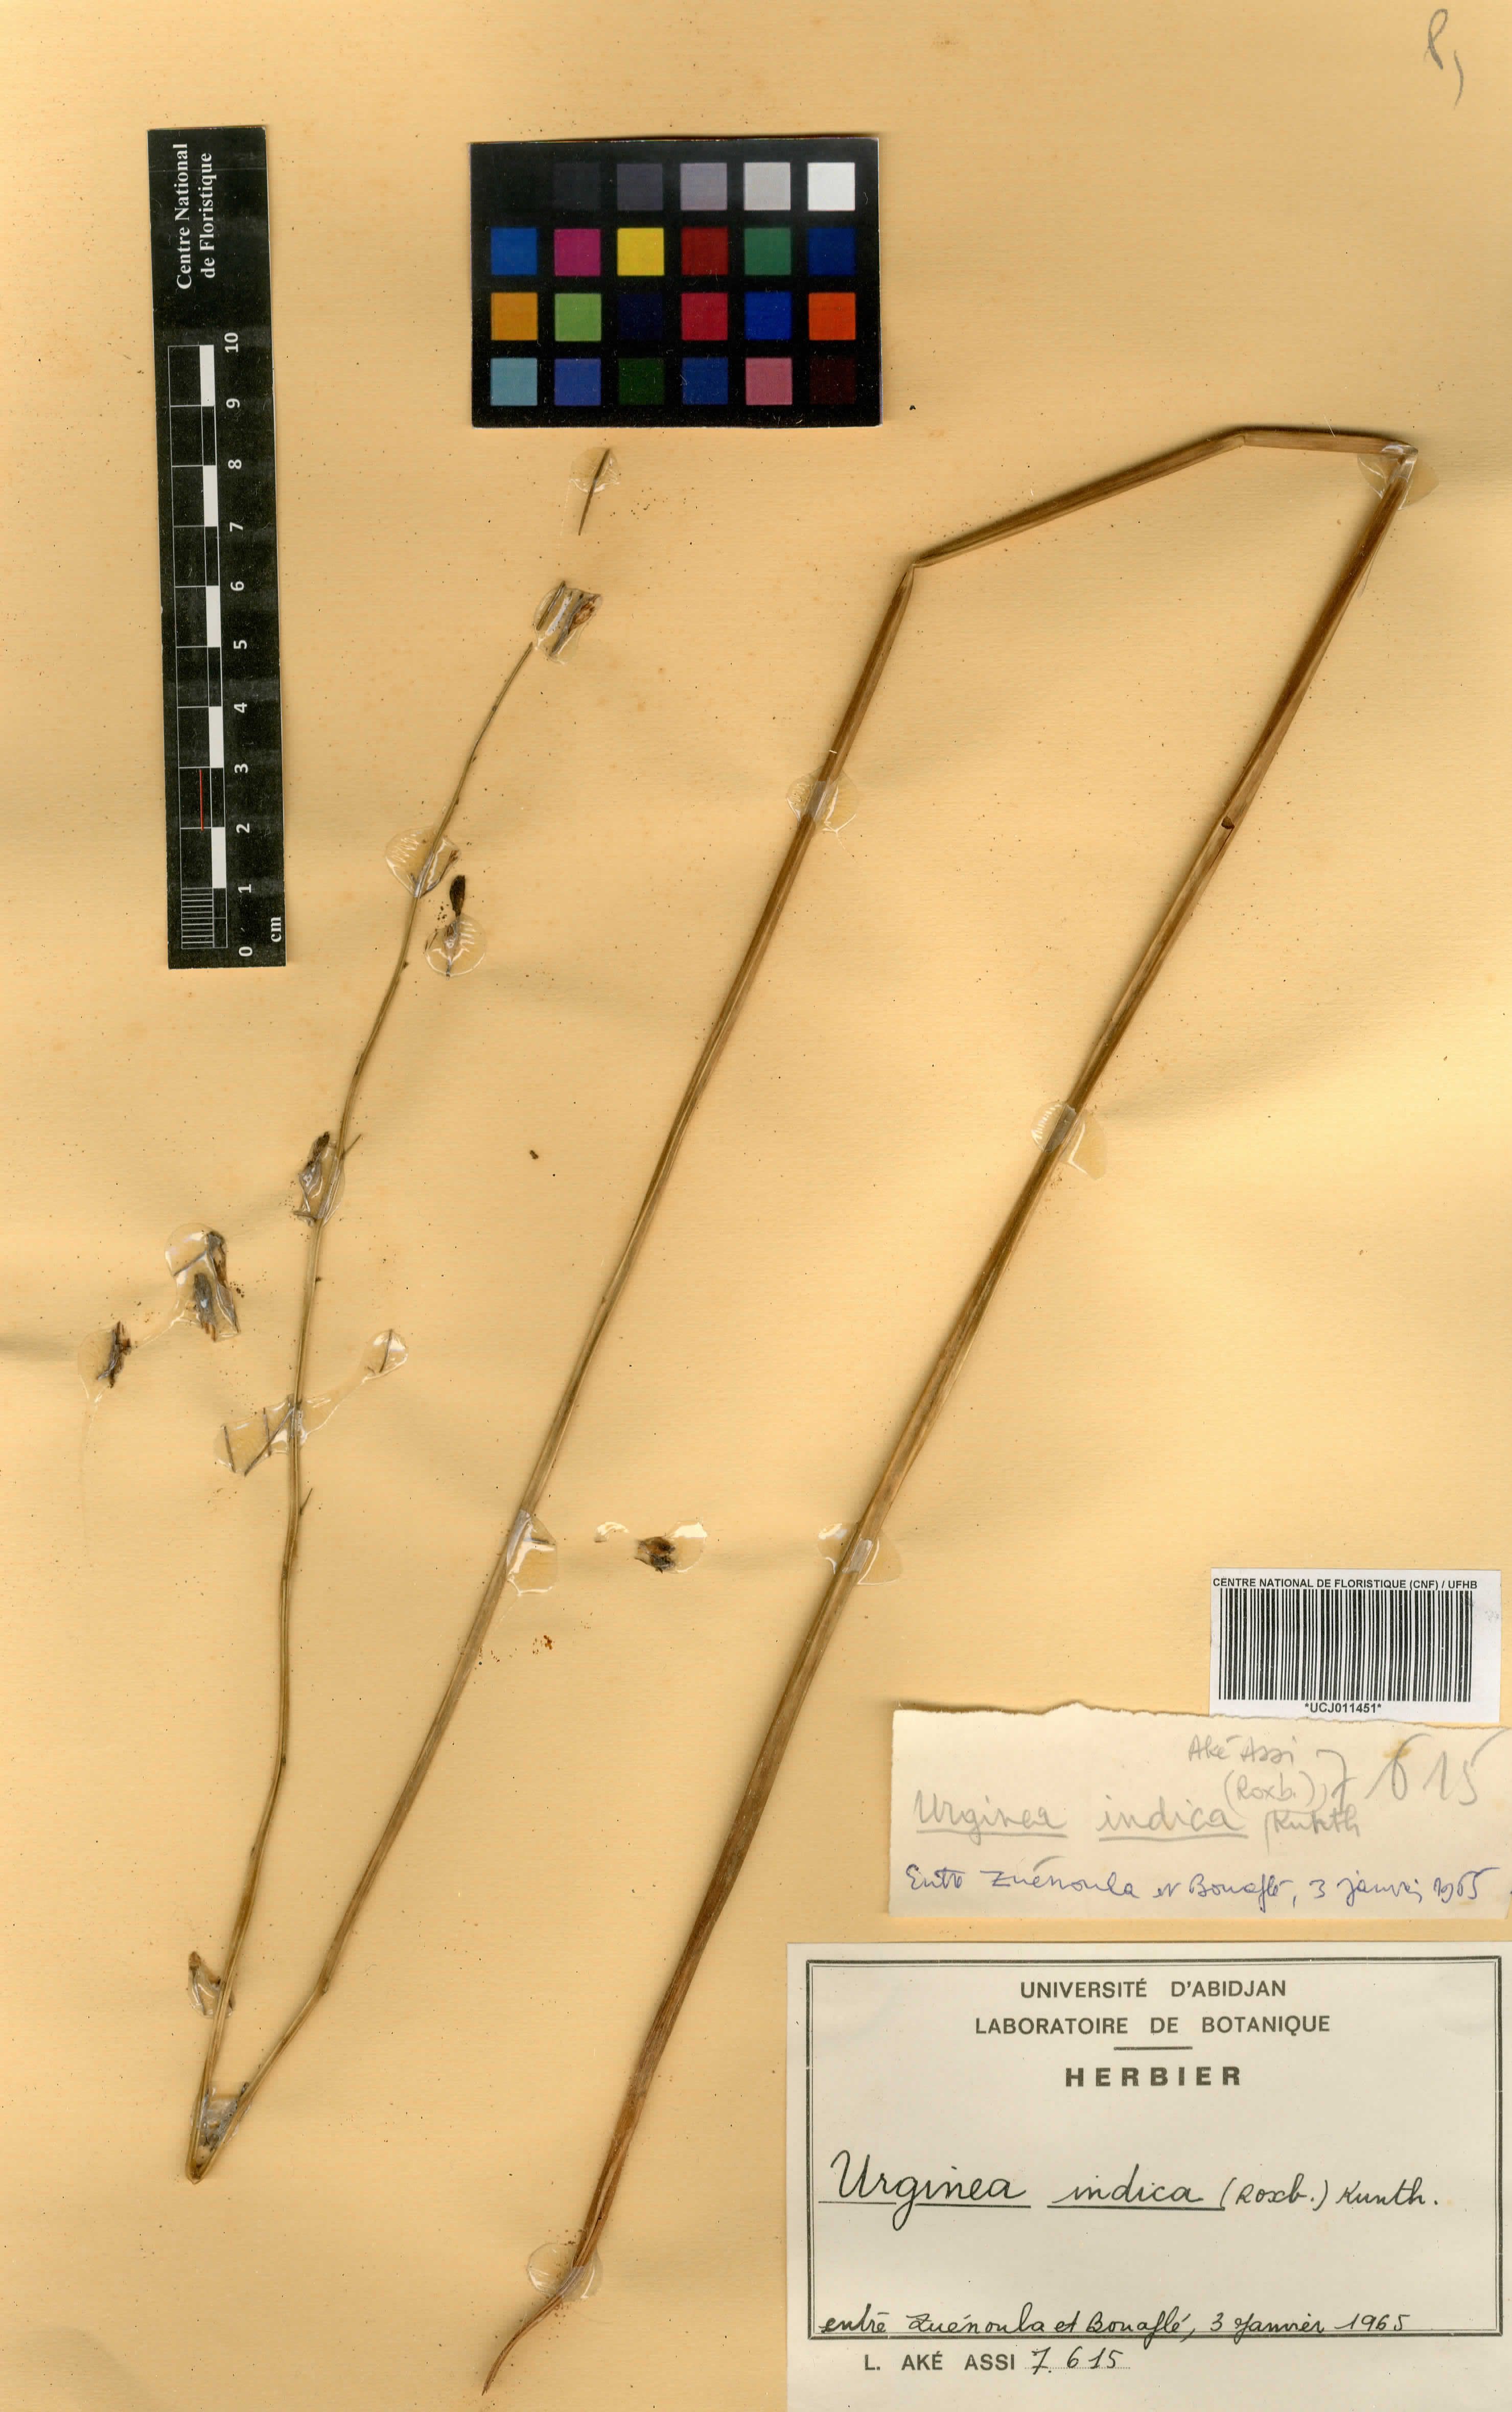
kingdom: Plantae
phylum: Tracheophyta
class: Liliopsida
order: Asparagales
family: Asparagaceae
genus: Drimia
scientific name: Drimia indica
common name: Indian-squill
